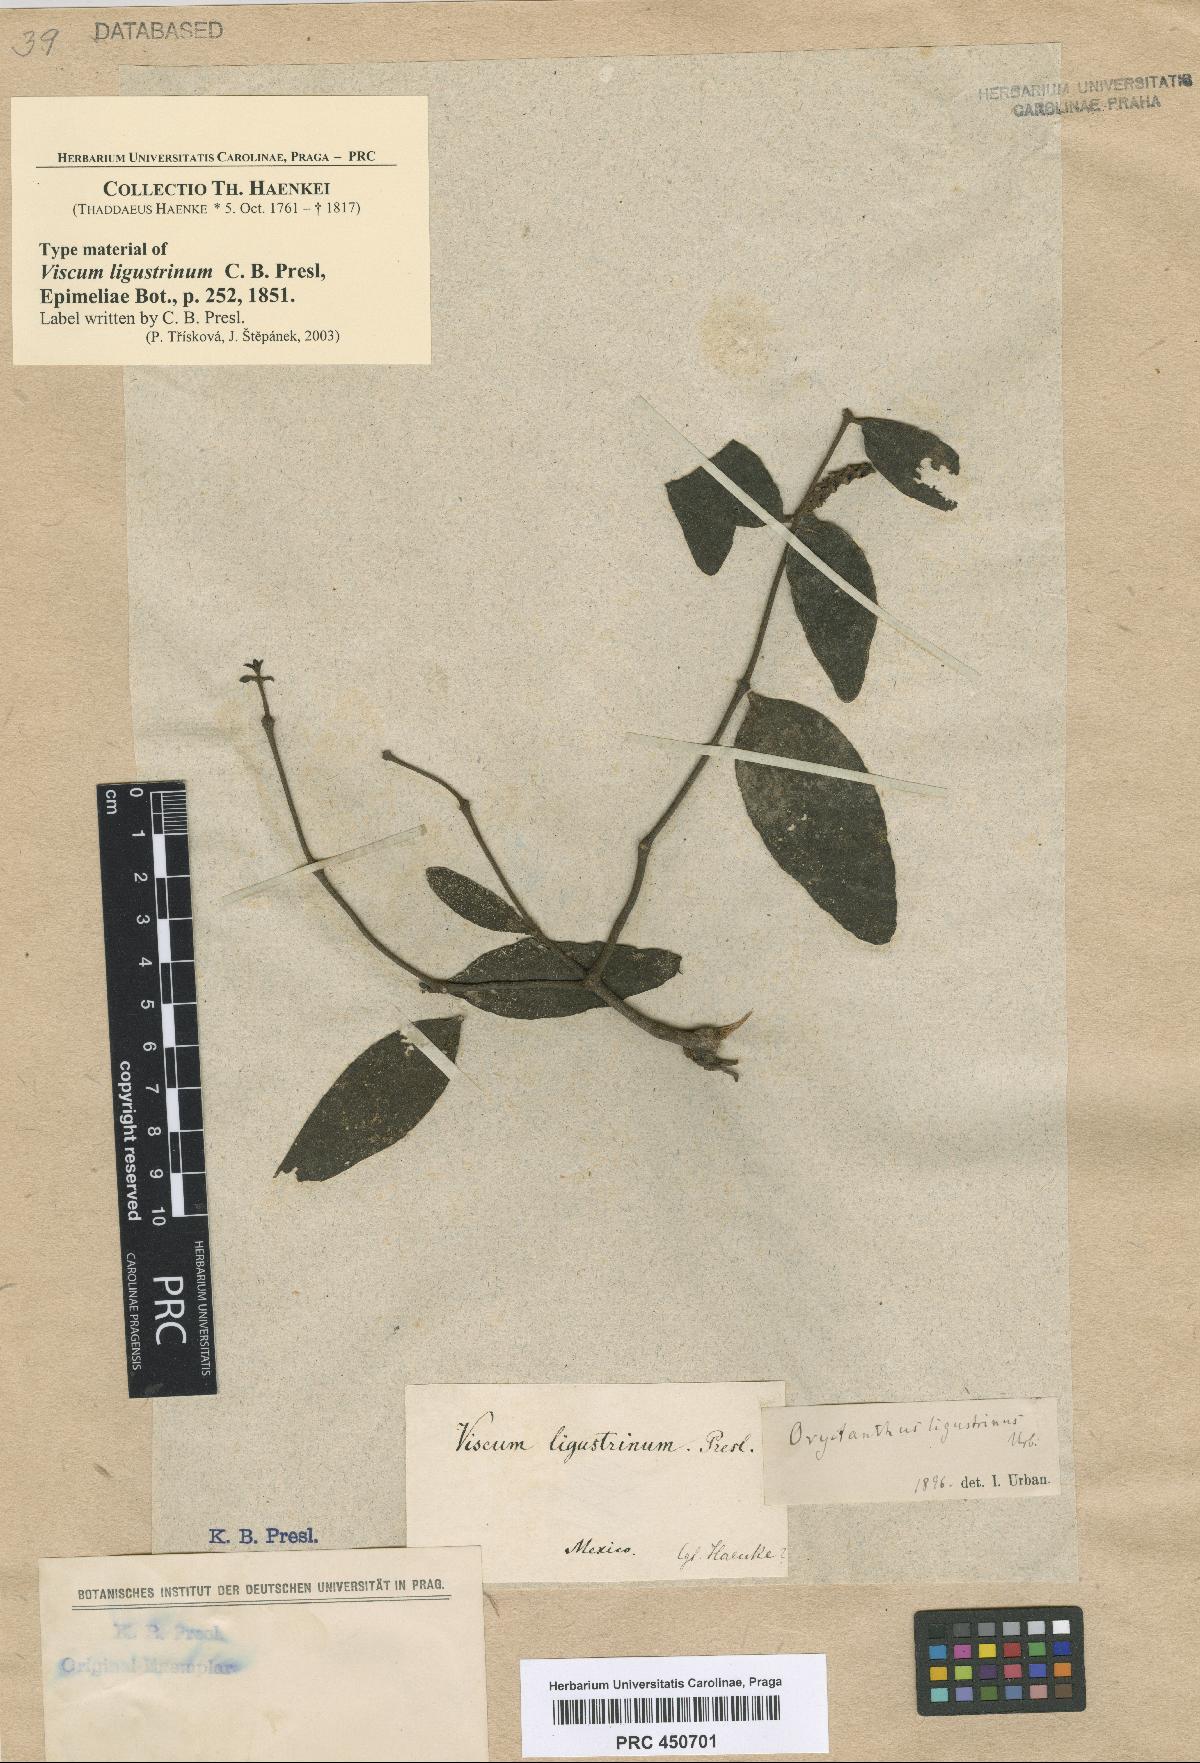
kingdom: Plantae
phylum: Tracheophyta
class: Magnoliopsida
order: Santalales
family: Loranthaceae
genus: Oryctanthus
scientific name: Oryctanthus alveolatus
